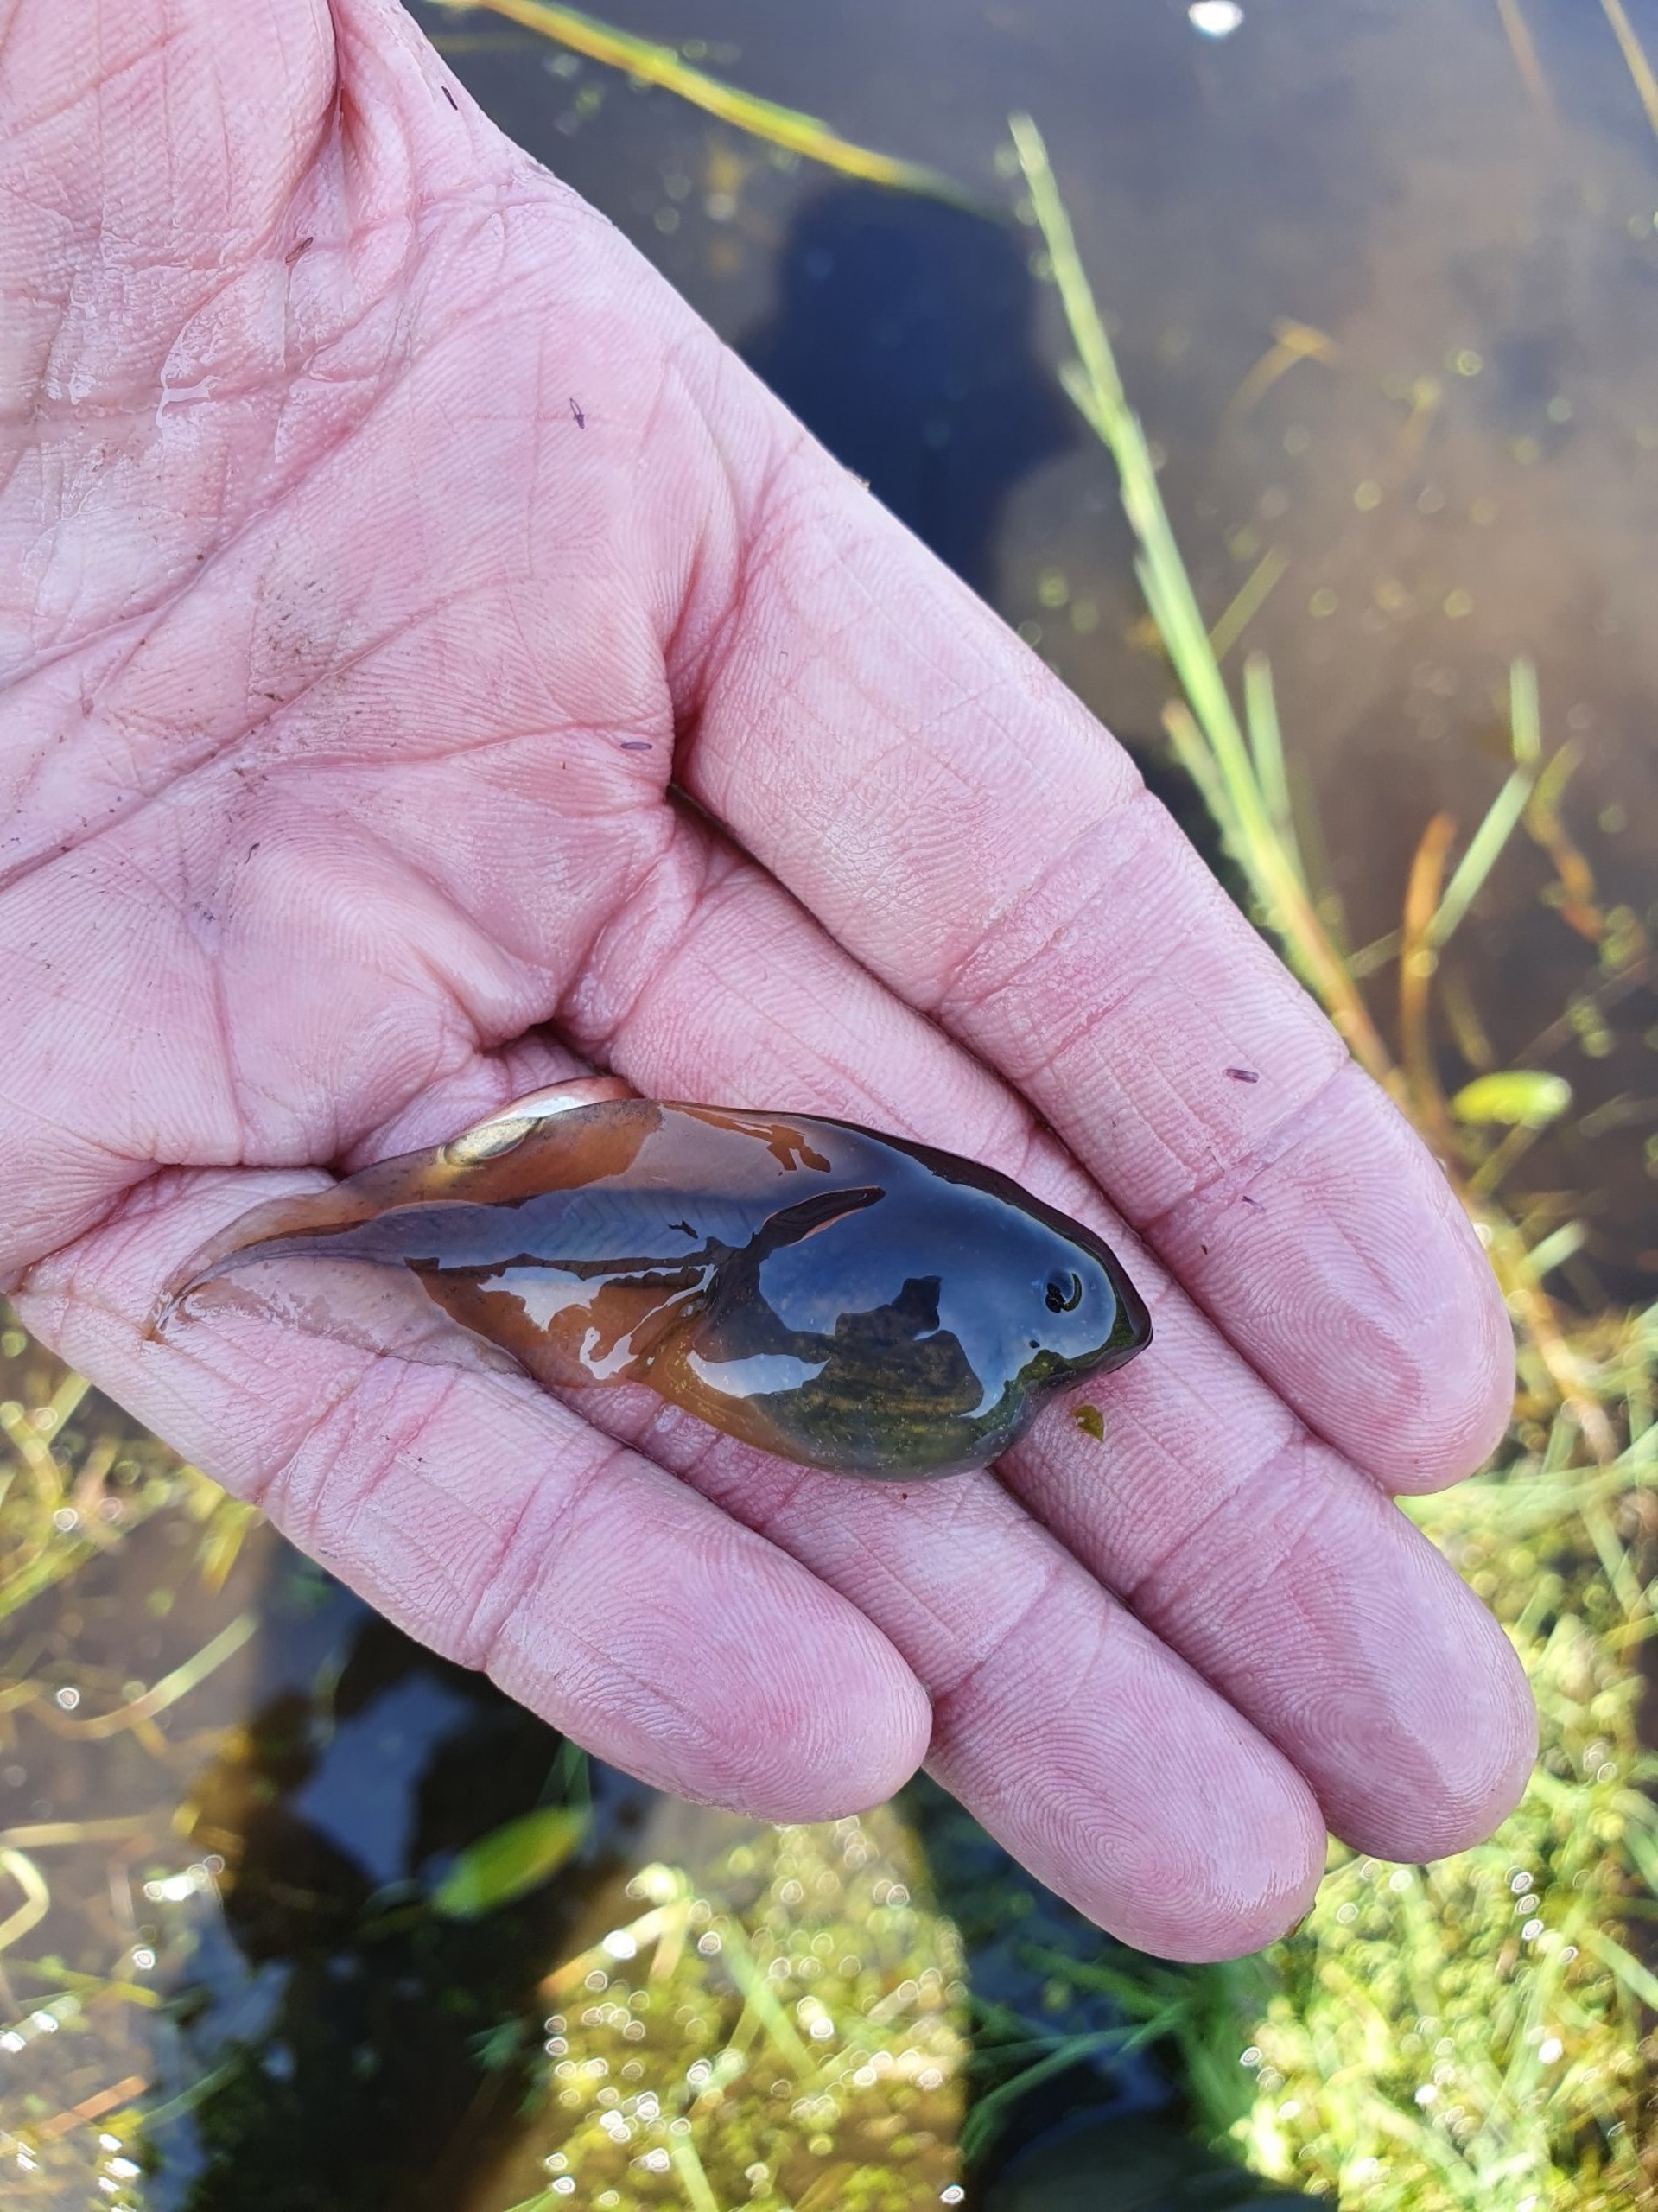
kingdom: Animalia
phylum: Chordata
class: Amphibia
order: Anura
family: Pelobatidae
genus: Pelobates
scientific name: Pelobates fuscus
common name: Løgfrø
